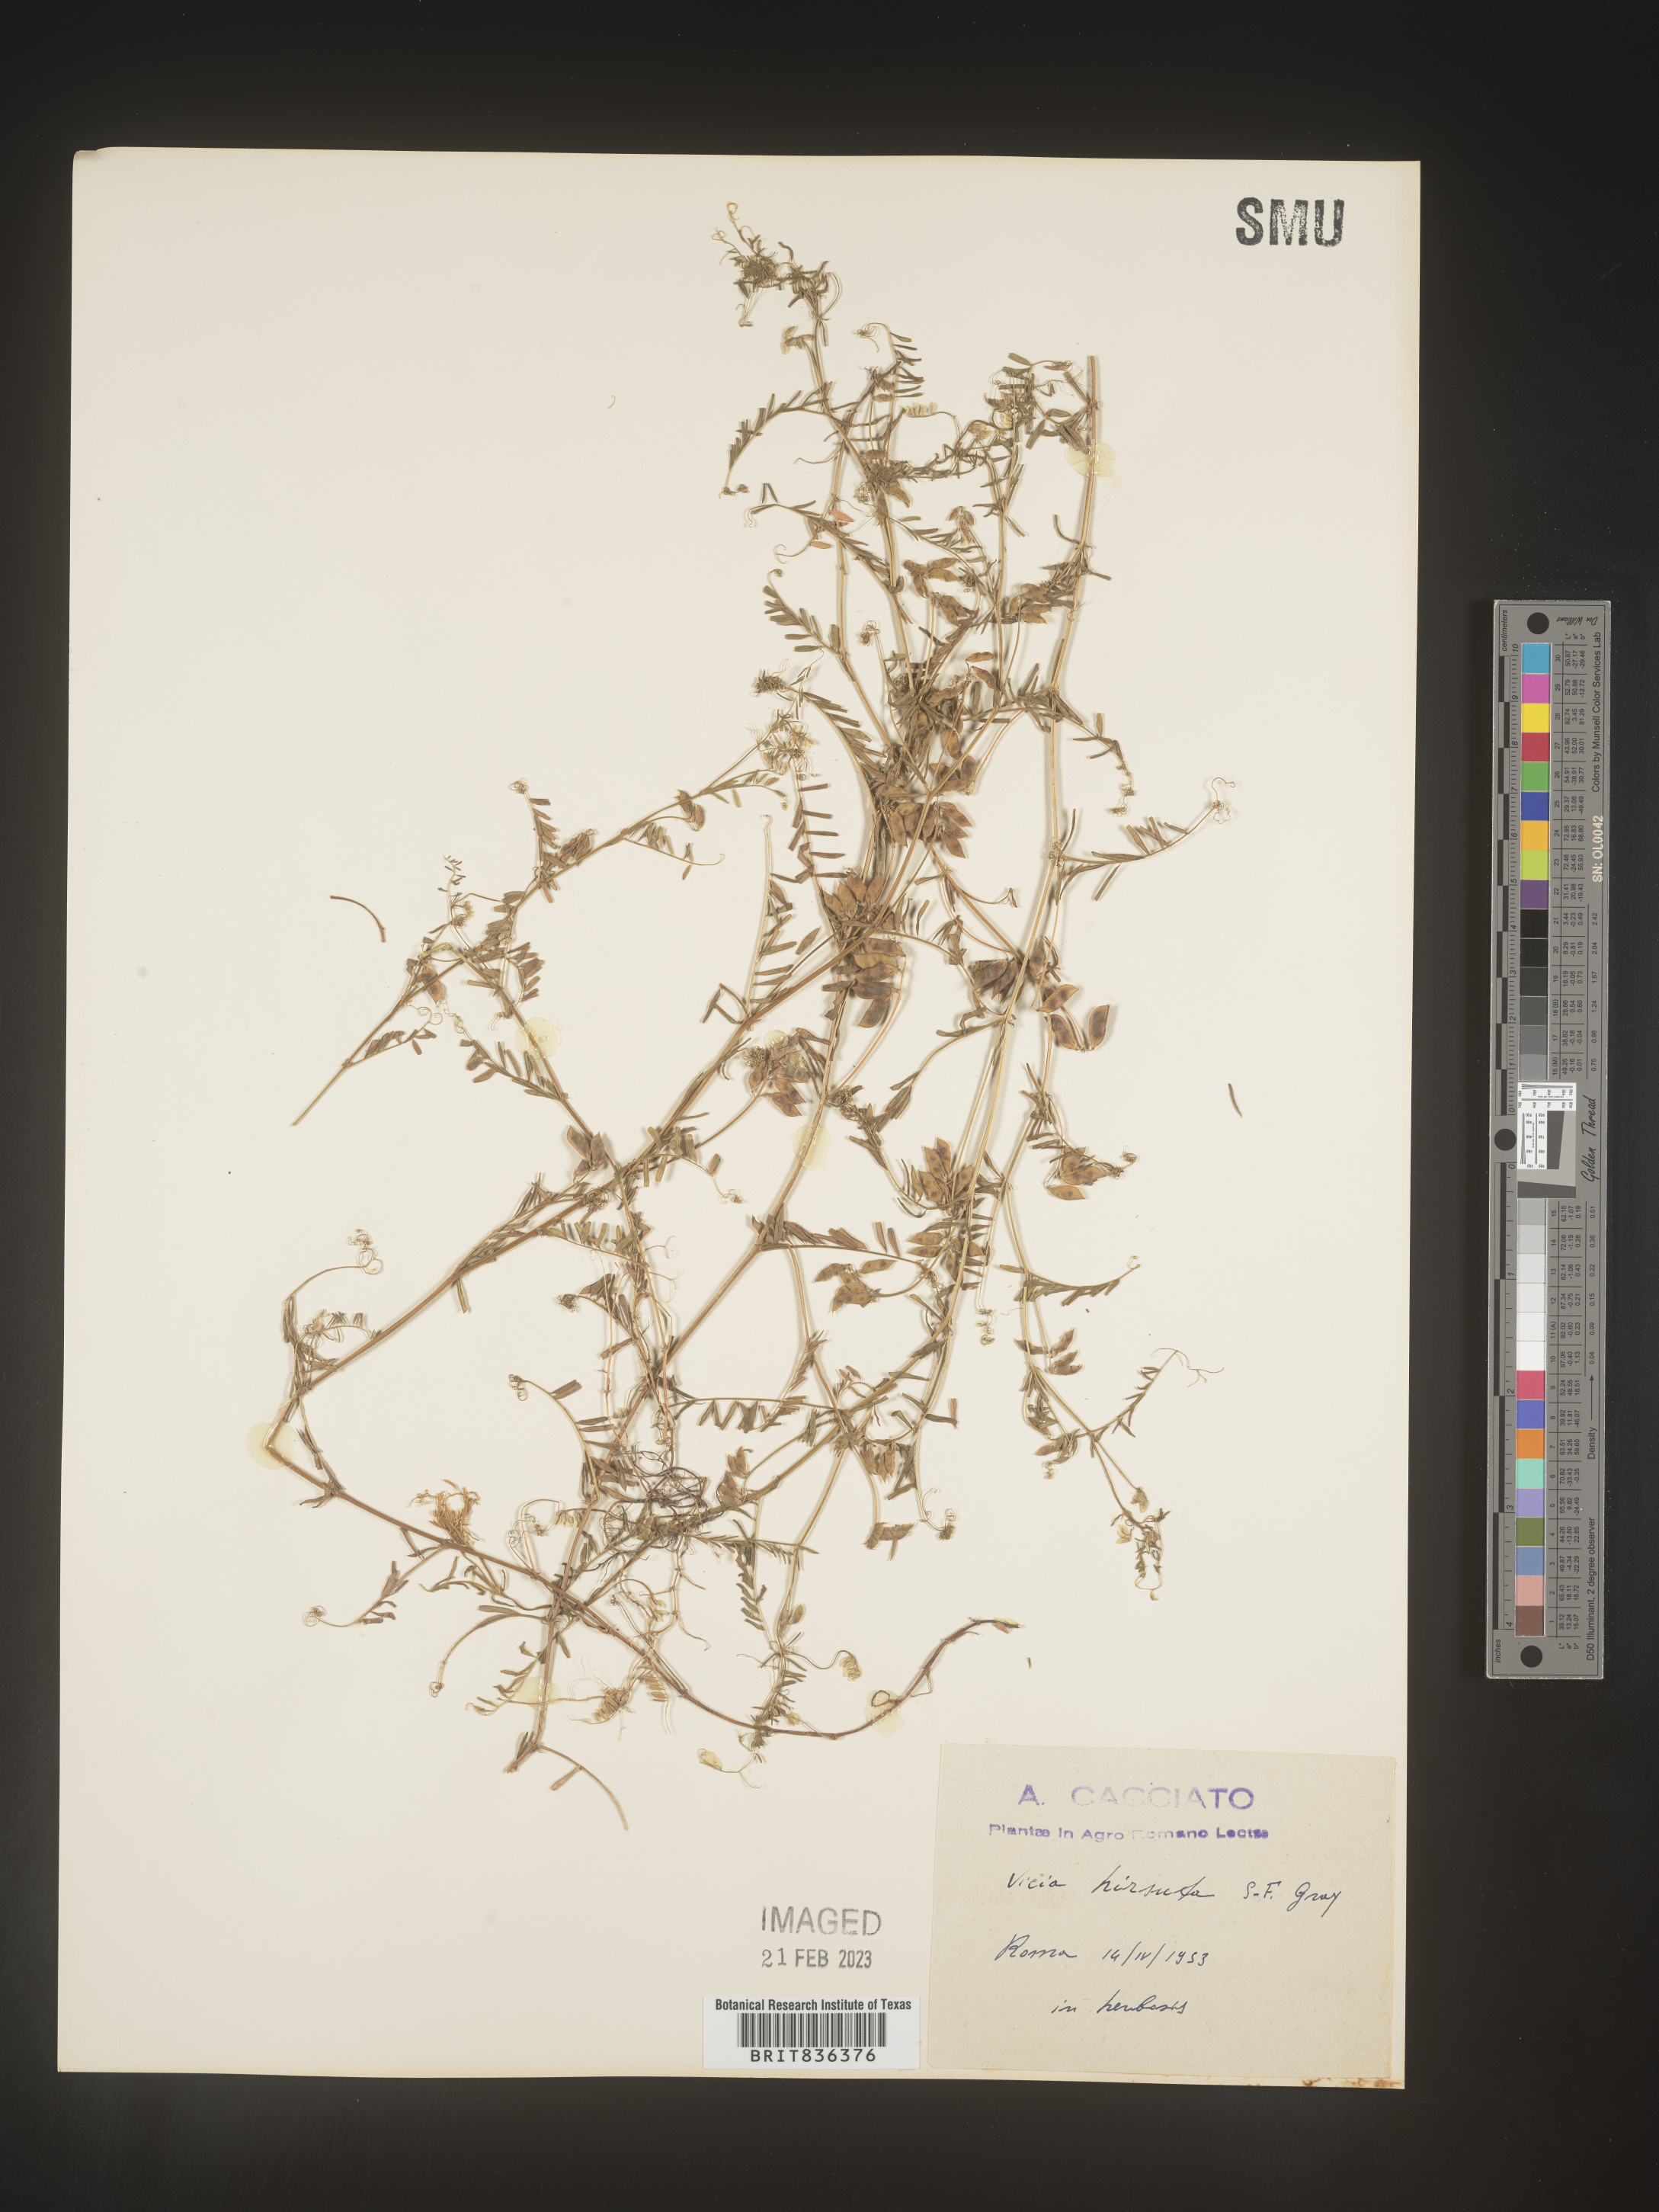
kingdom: Plantae
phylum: Tracheophyta
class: Magnoliopsida
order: Fabales
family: Fabaceae
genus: Vicia
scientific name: Vicia
